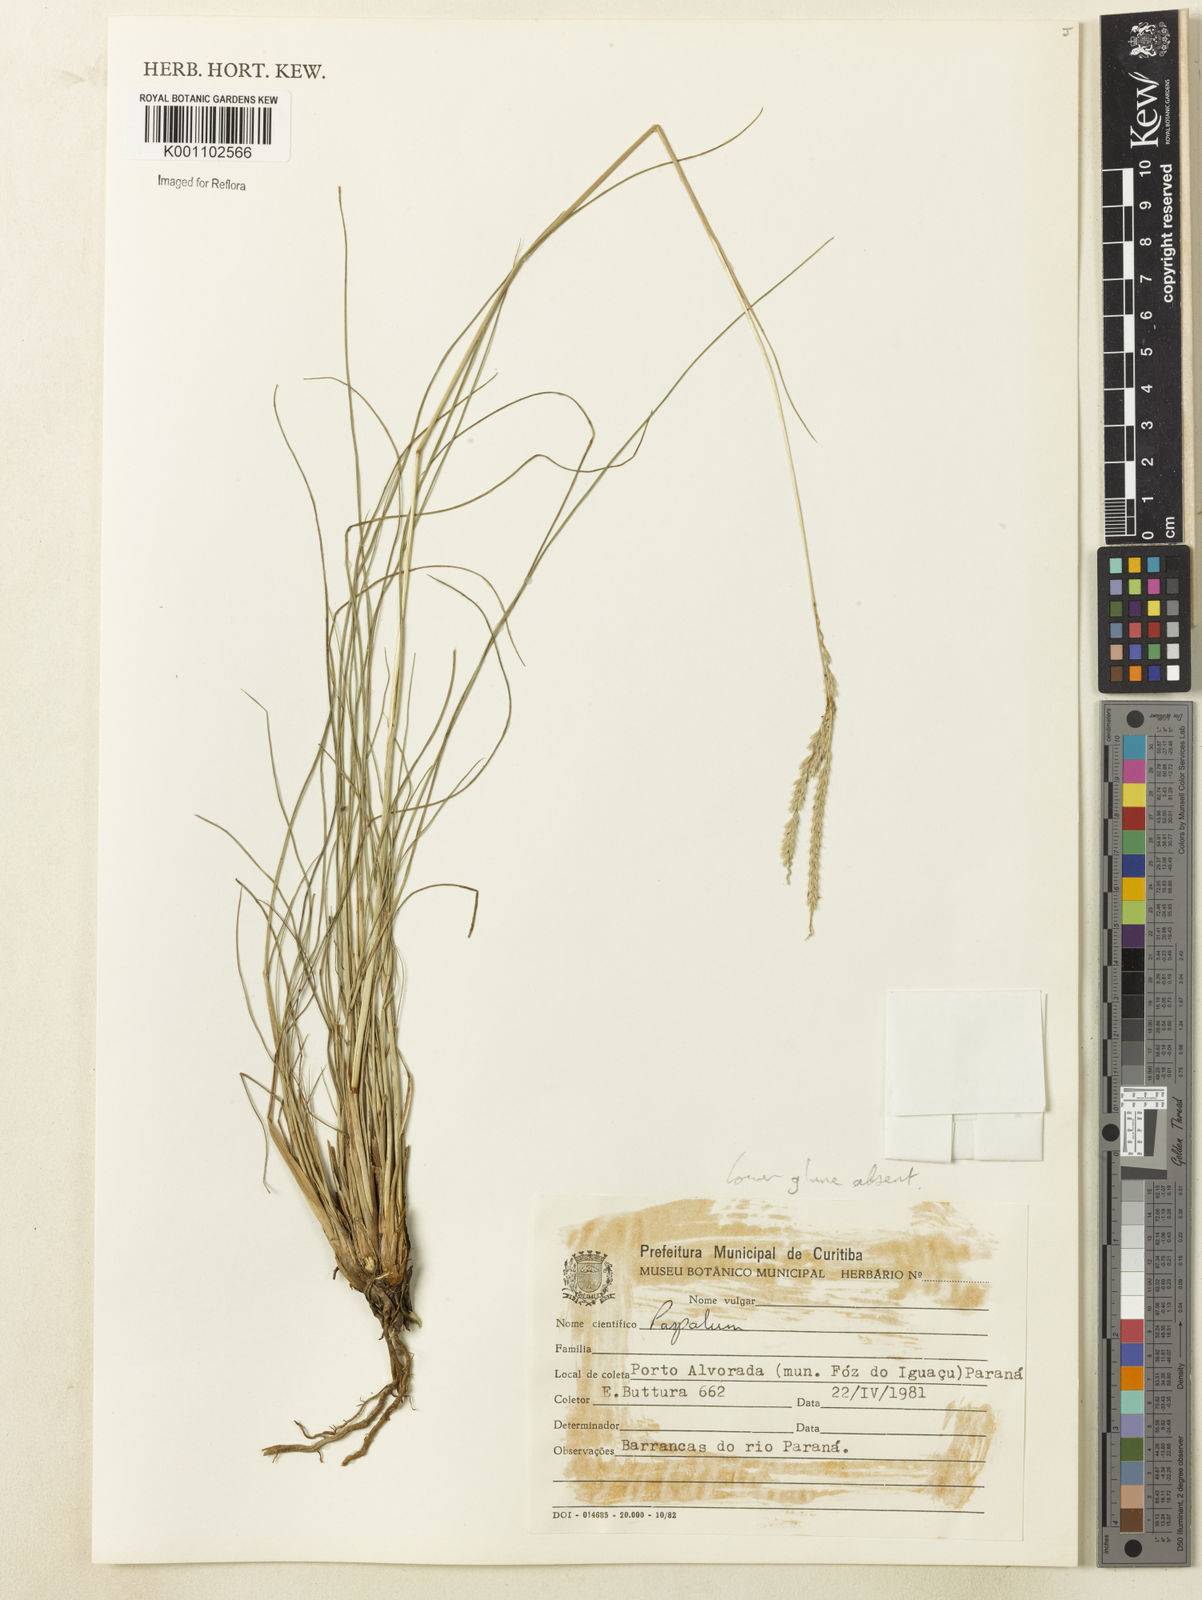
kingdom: Plantae
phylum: Tracheophyta
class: Liliopsida
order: Poales
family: Poaceae
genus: Paspalum
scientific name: Paspalum bertonii
